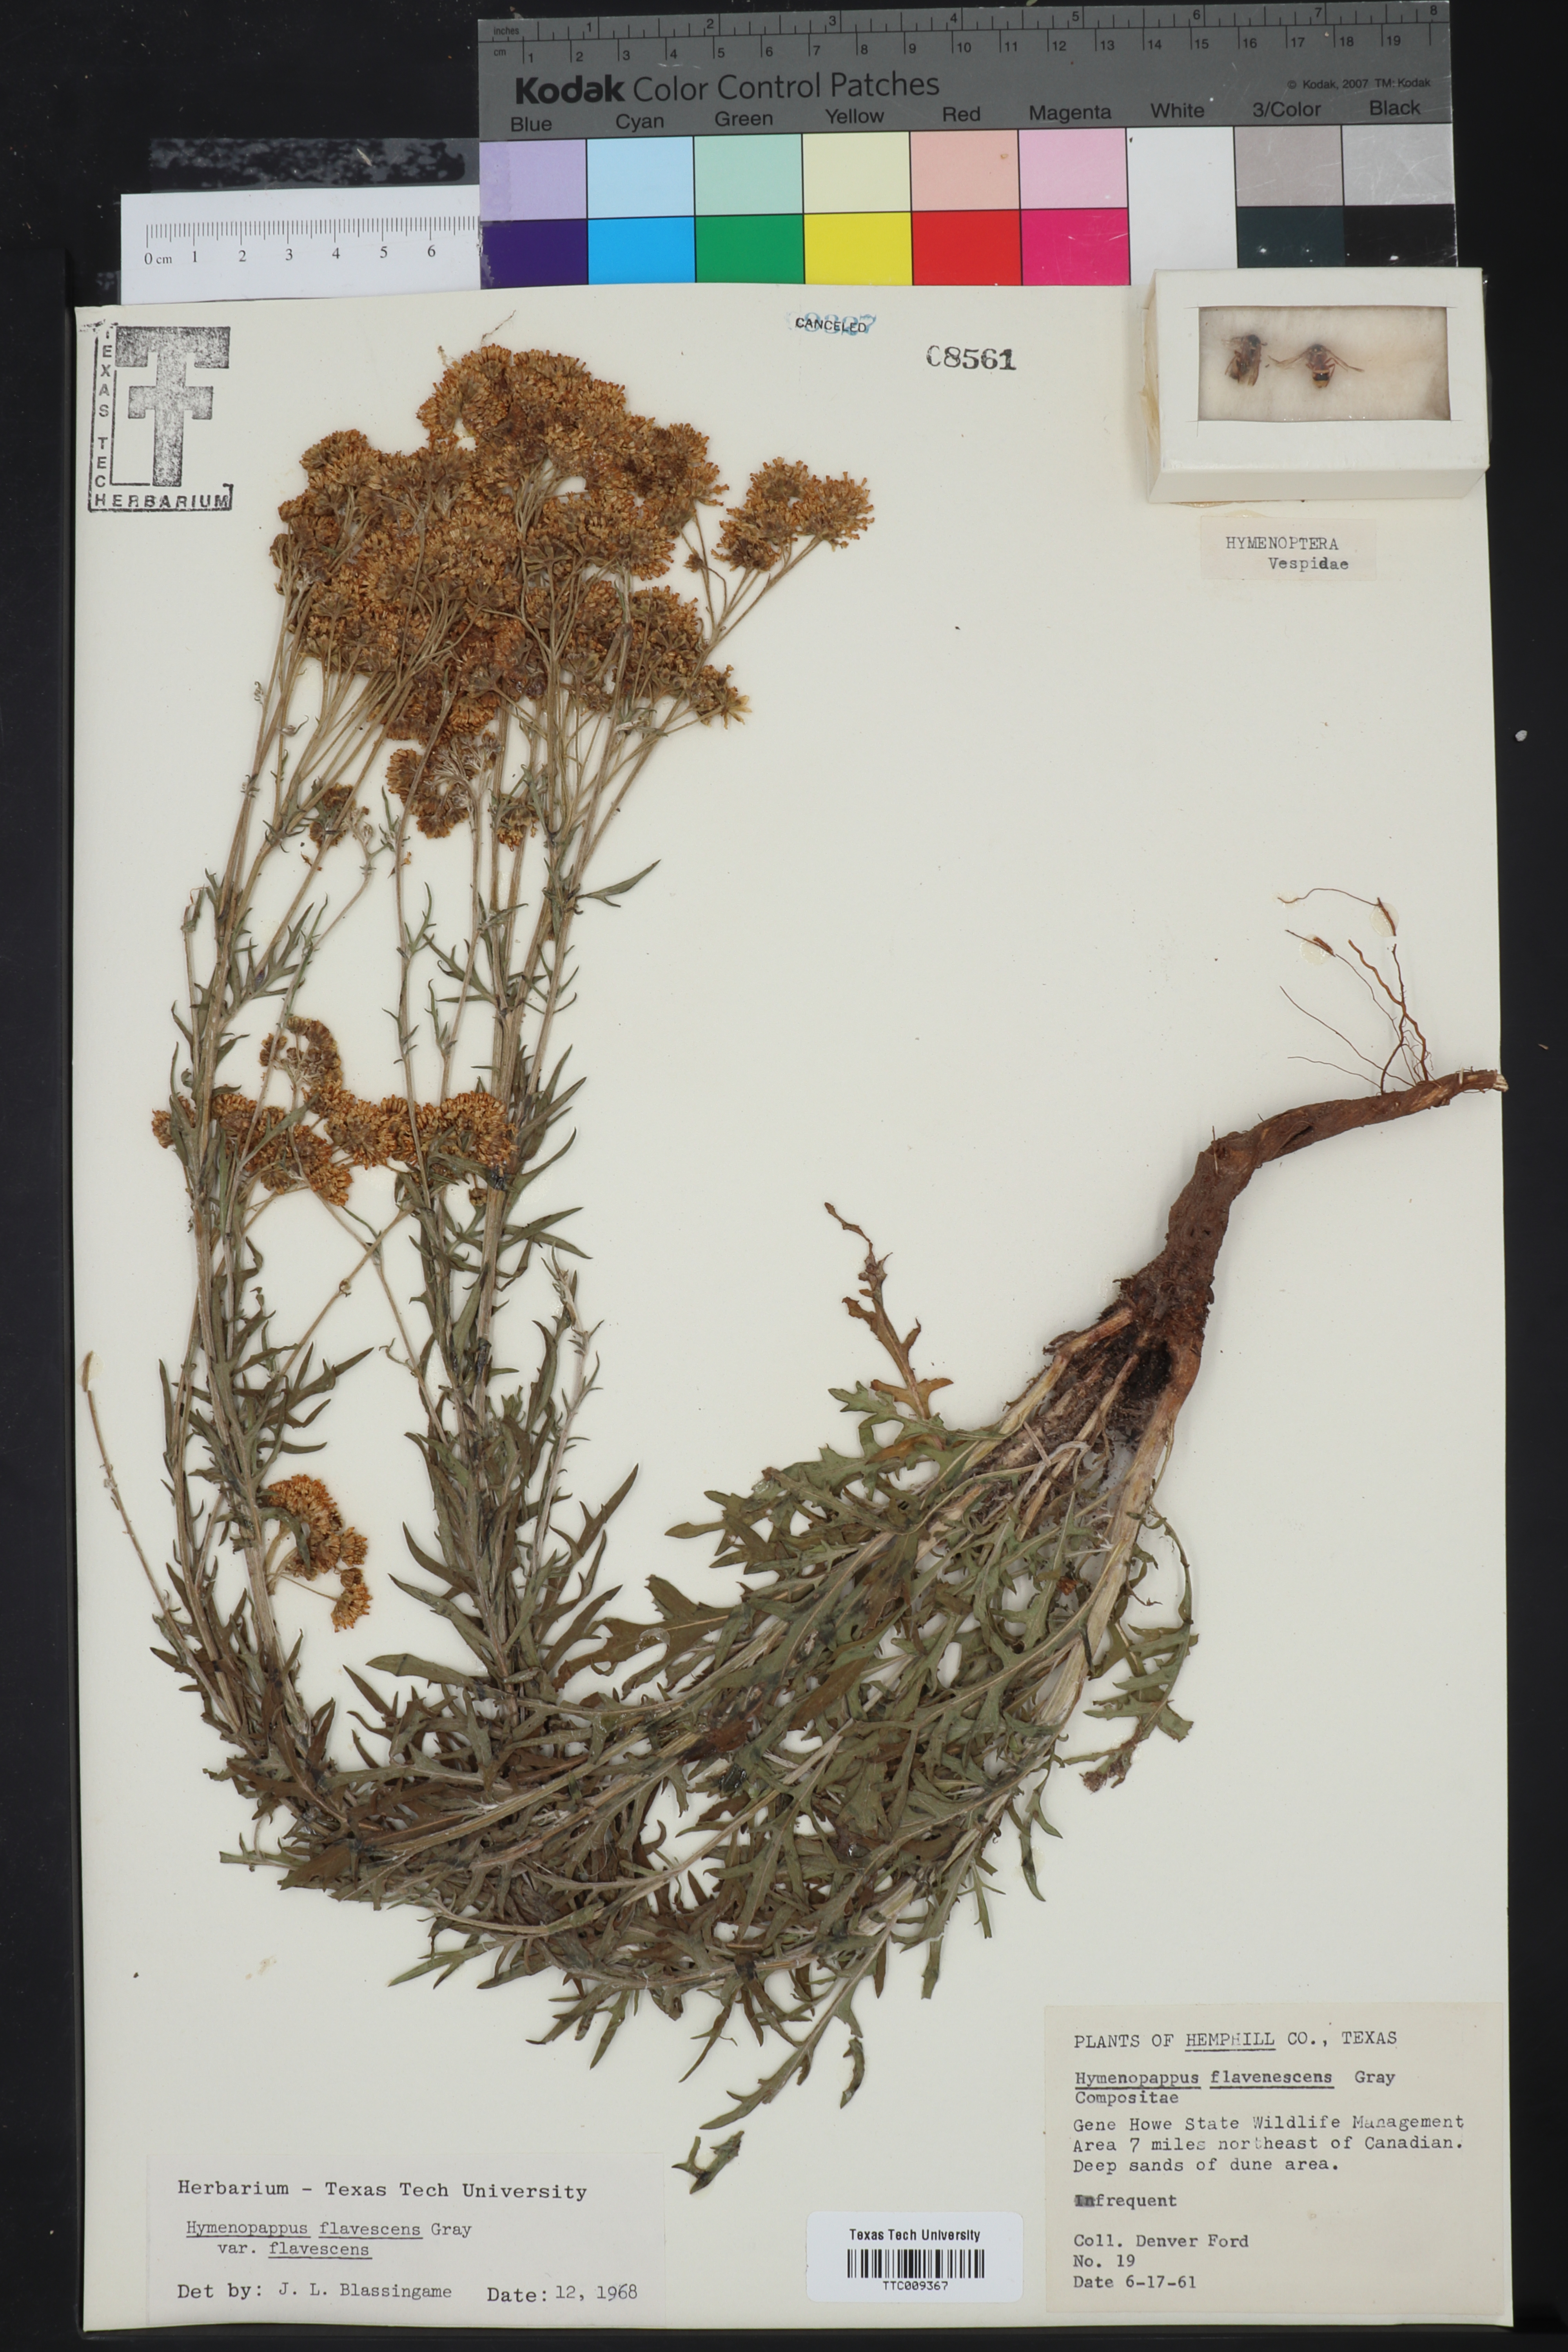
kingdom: Plantae
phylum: Tracheophyta
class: Magnoliopsida
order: Asterales
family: Asteraceae
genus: Hymenopappus
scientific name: Hymenopappus flavescens
